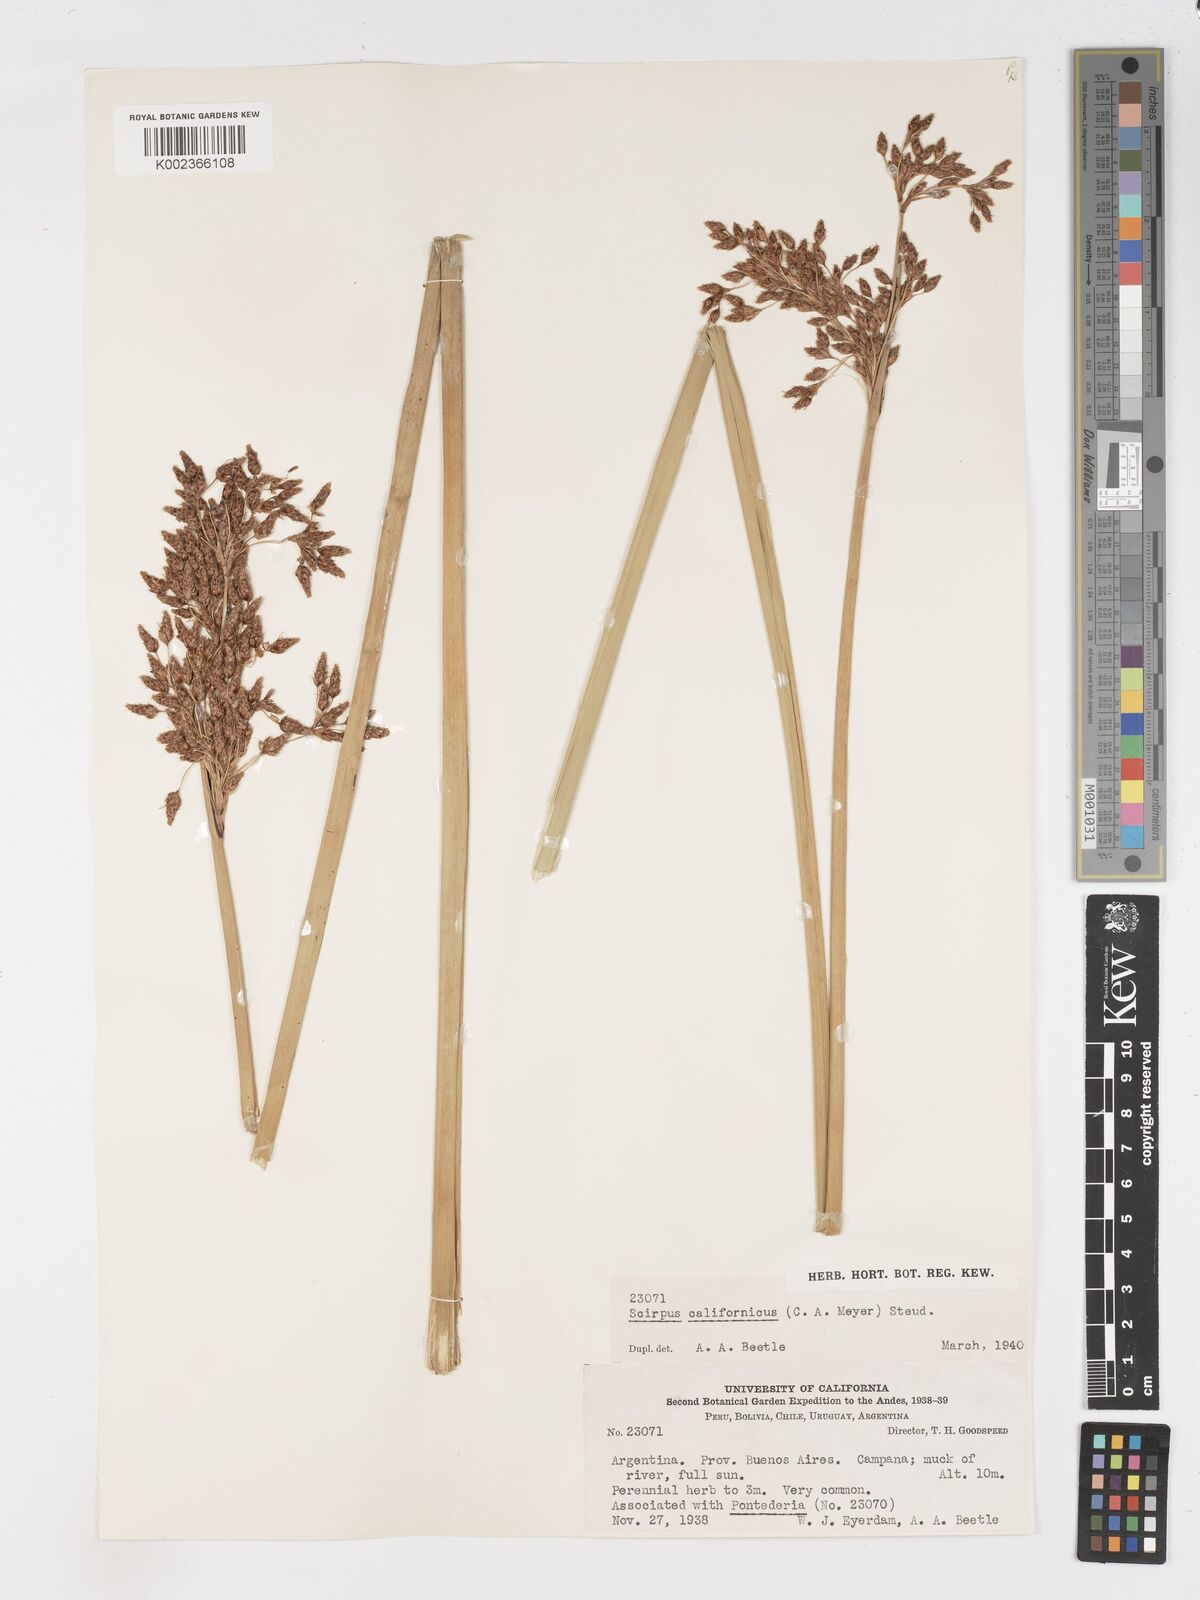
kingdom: Plantae
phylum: Tracheophyta
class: Liliopsida
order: Poales
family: Cyperaceae
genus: Schoenoplectus
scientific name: Schoenoplectus californicus
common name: California bulrush
